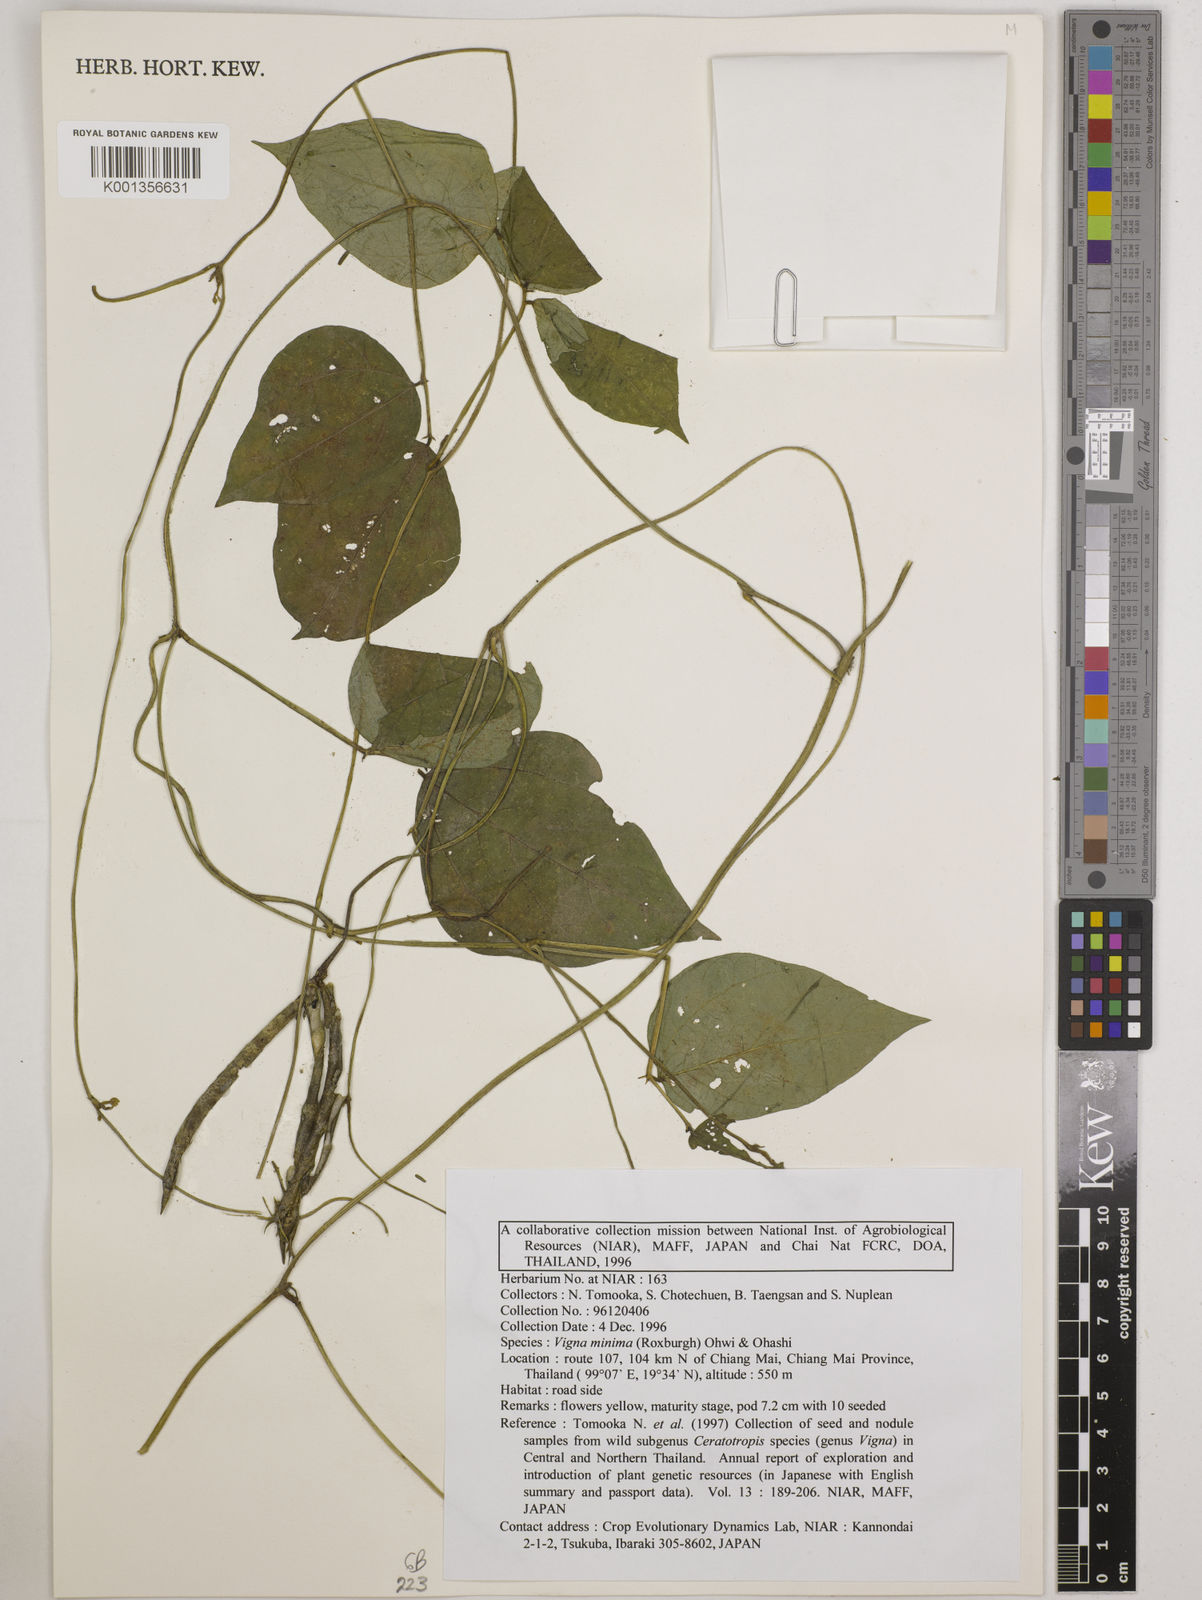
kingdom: Plantae
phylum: Tracheophyta
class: Magnoliopsida
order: Fabales
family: Fabaceae
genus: Vigna
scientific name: Vigna minima
